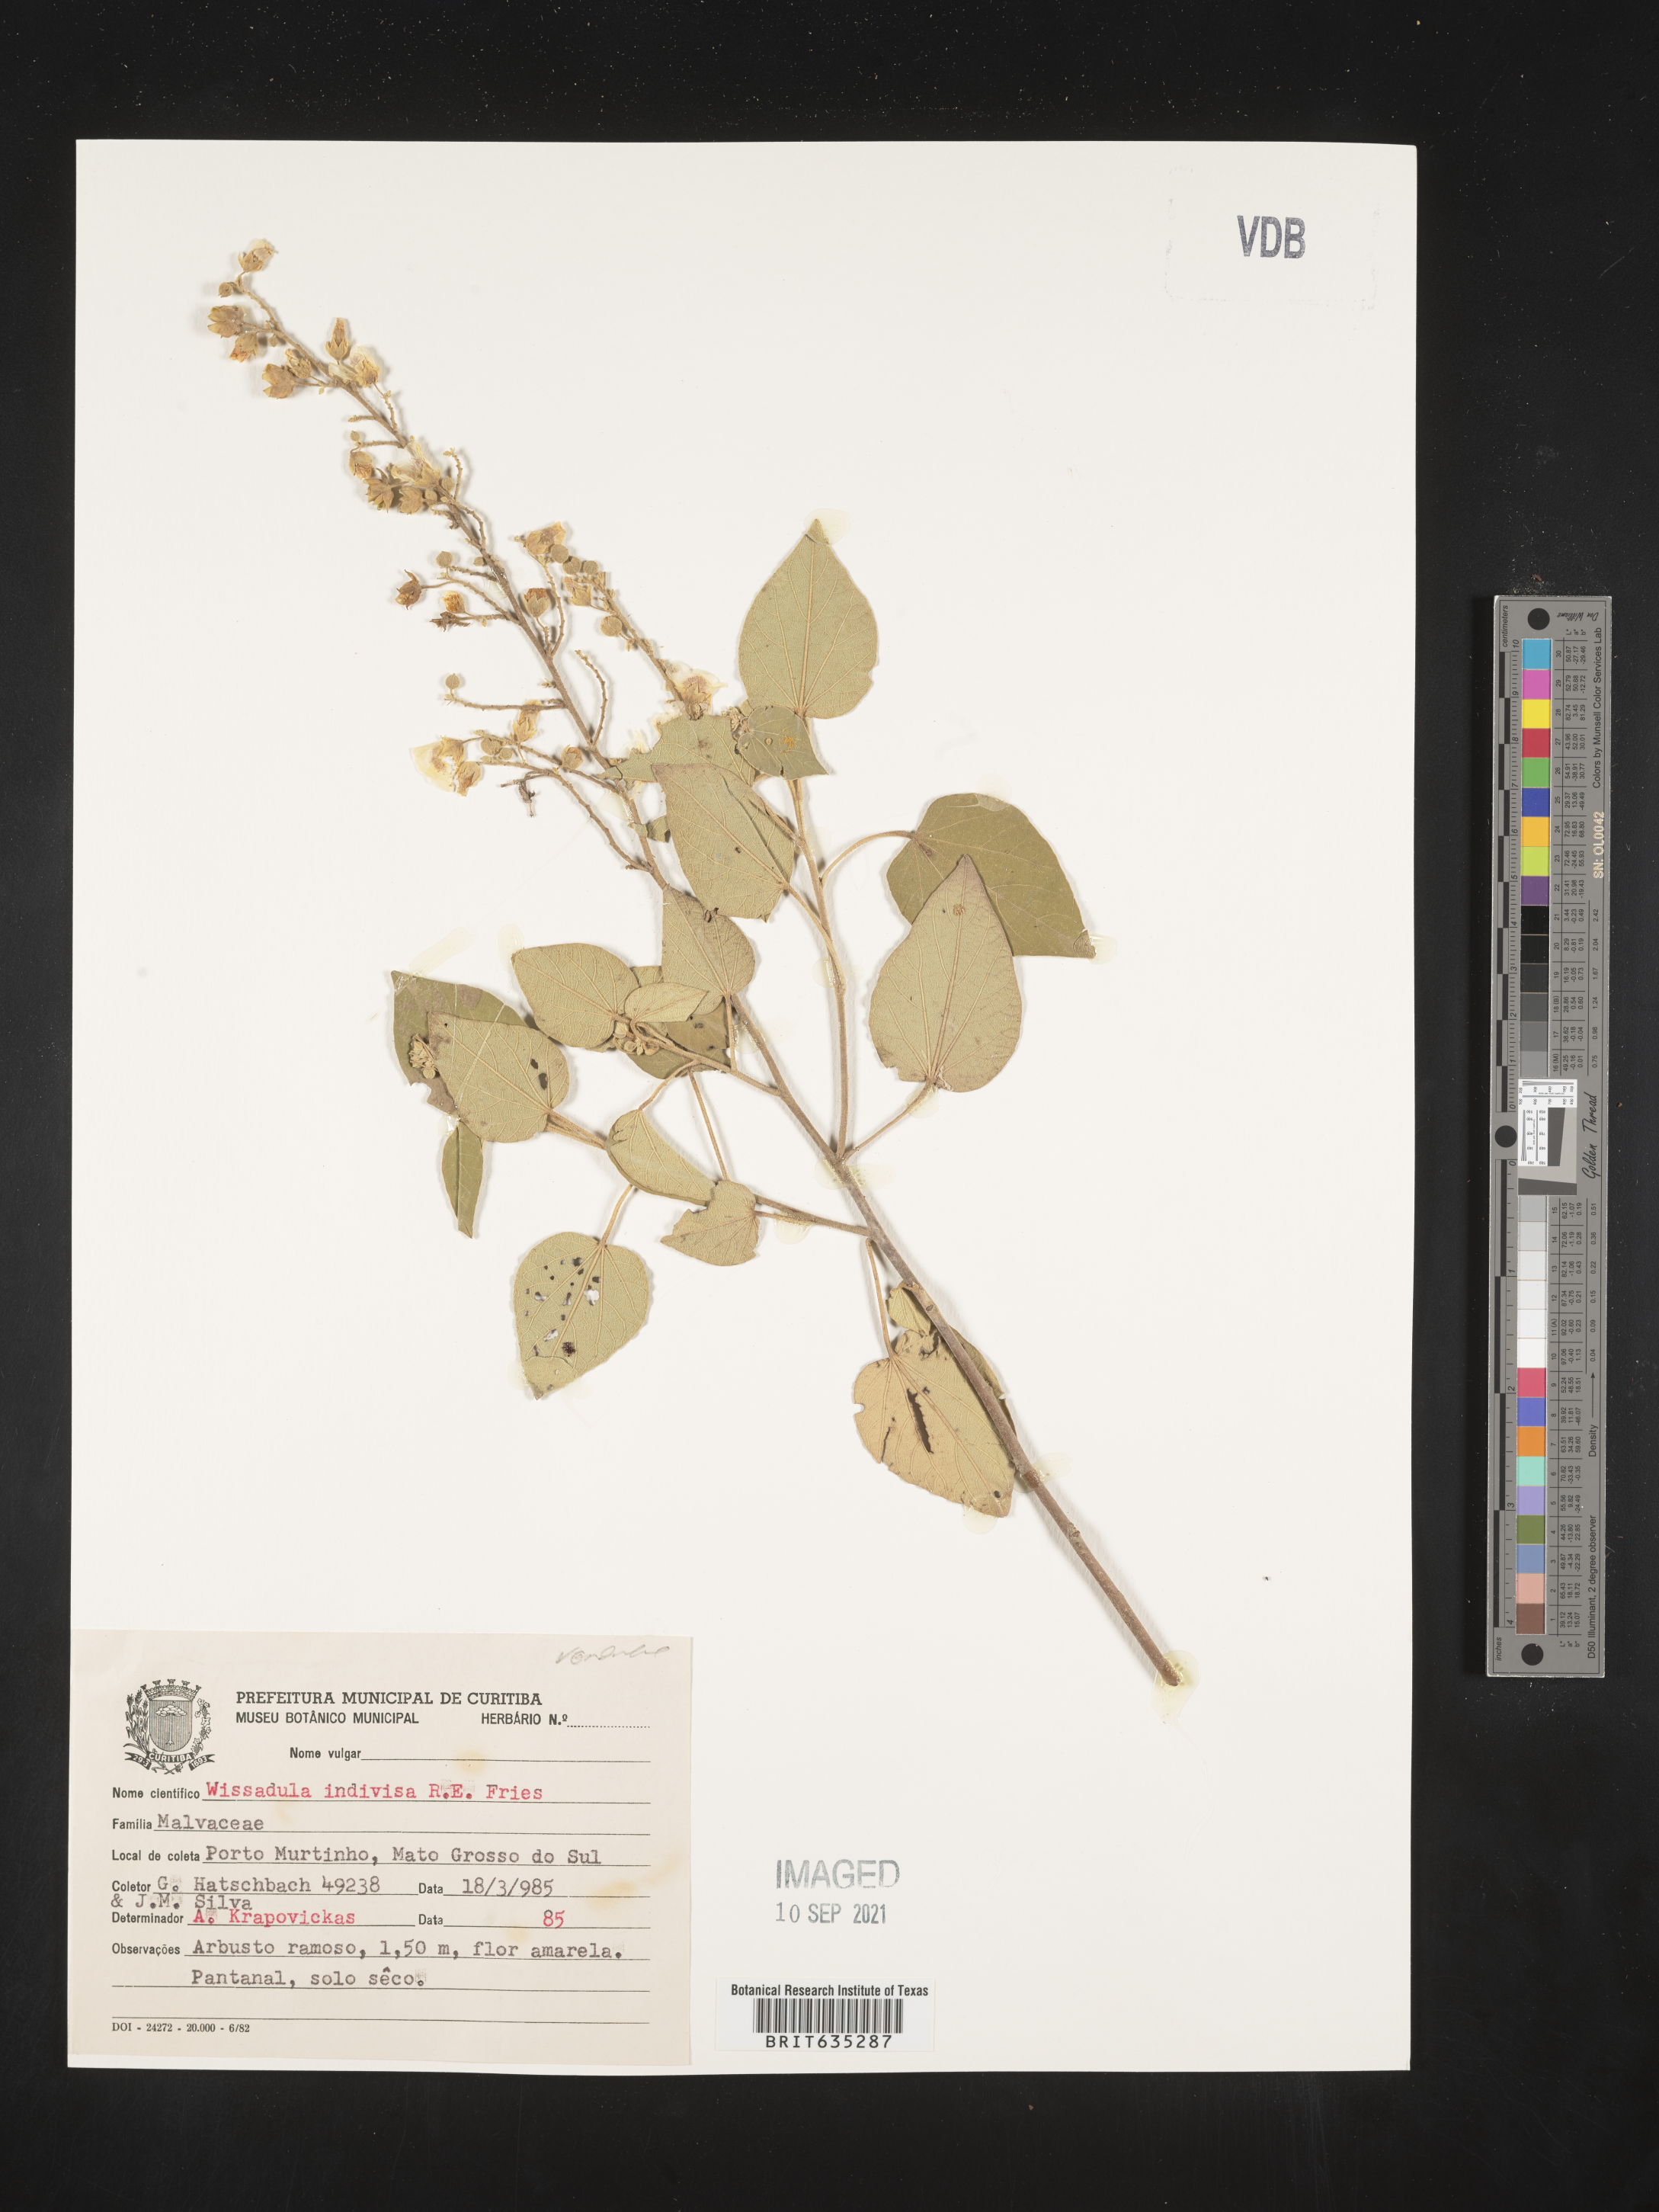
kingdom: Plantae
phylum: Tracheophyta
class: Magnoliopsida
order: Malvales
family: Malvaceae
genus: Wissadula
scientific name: Wissadula
